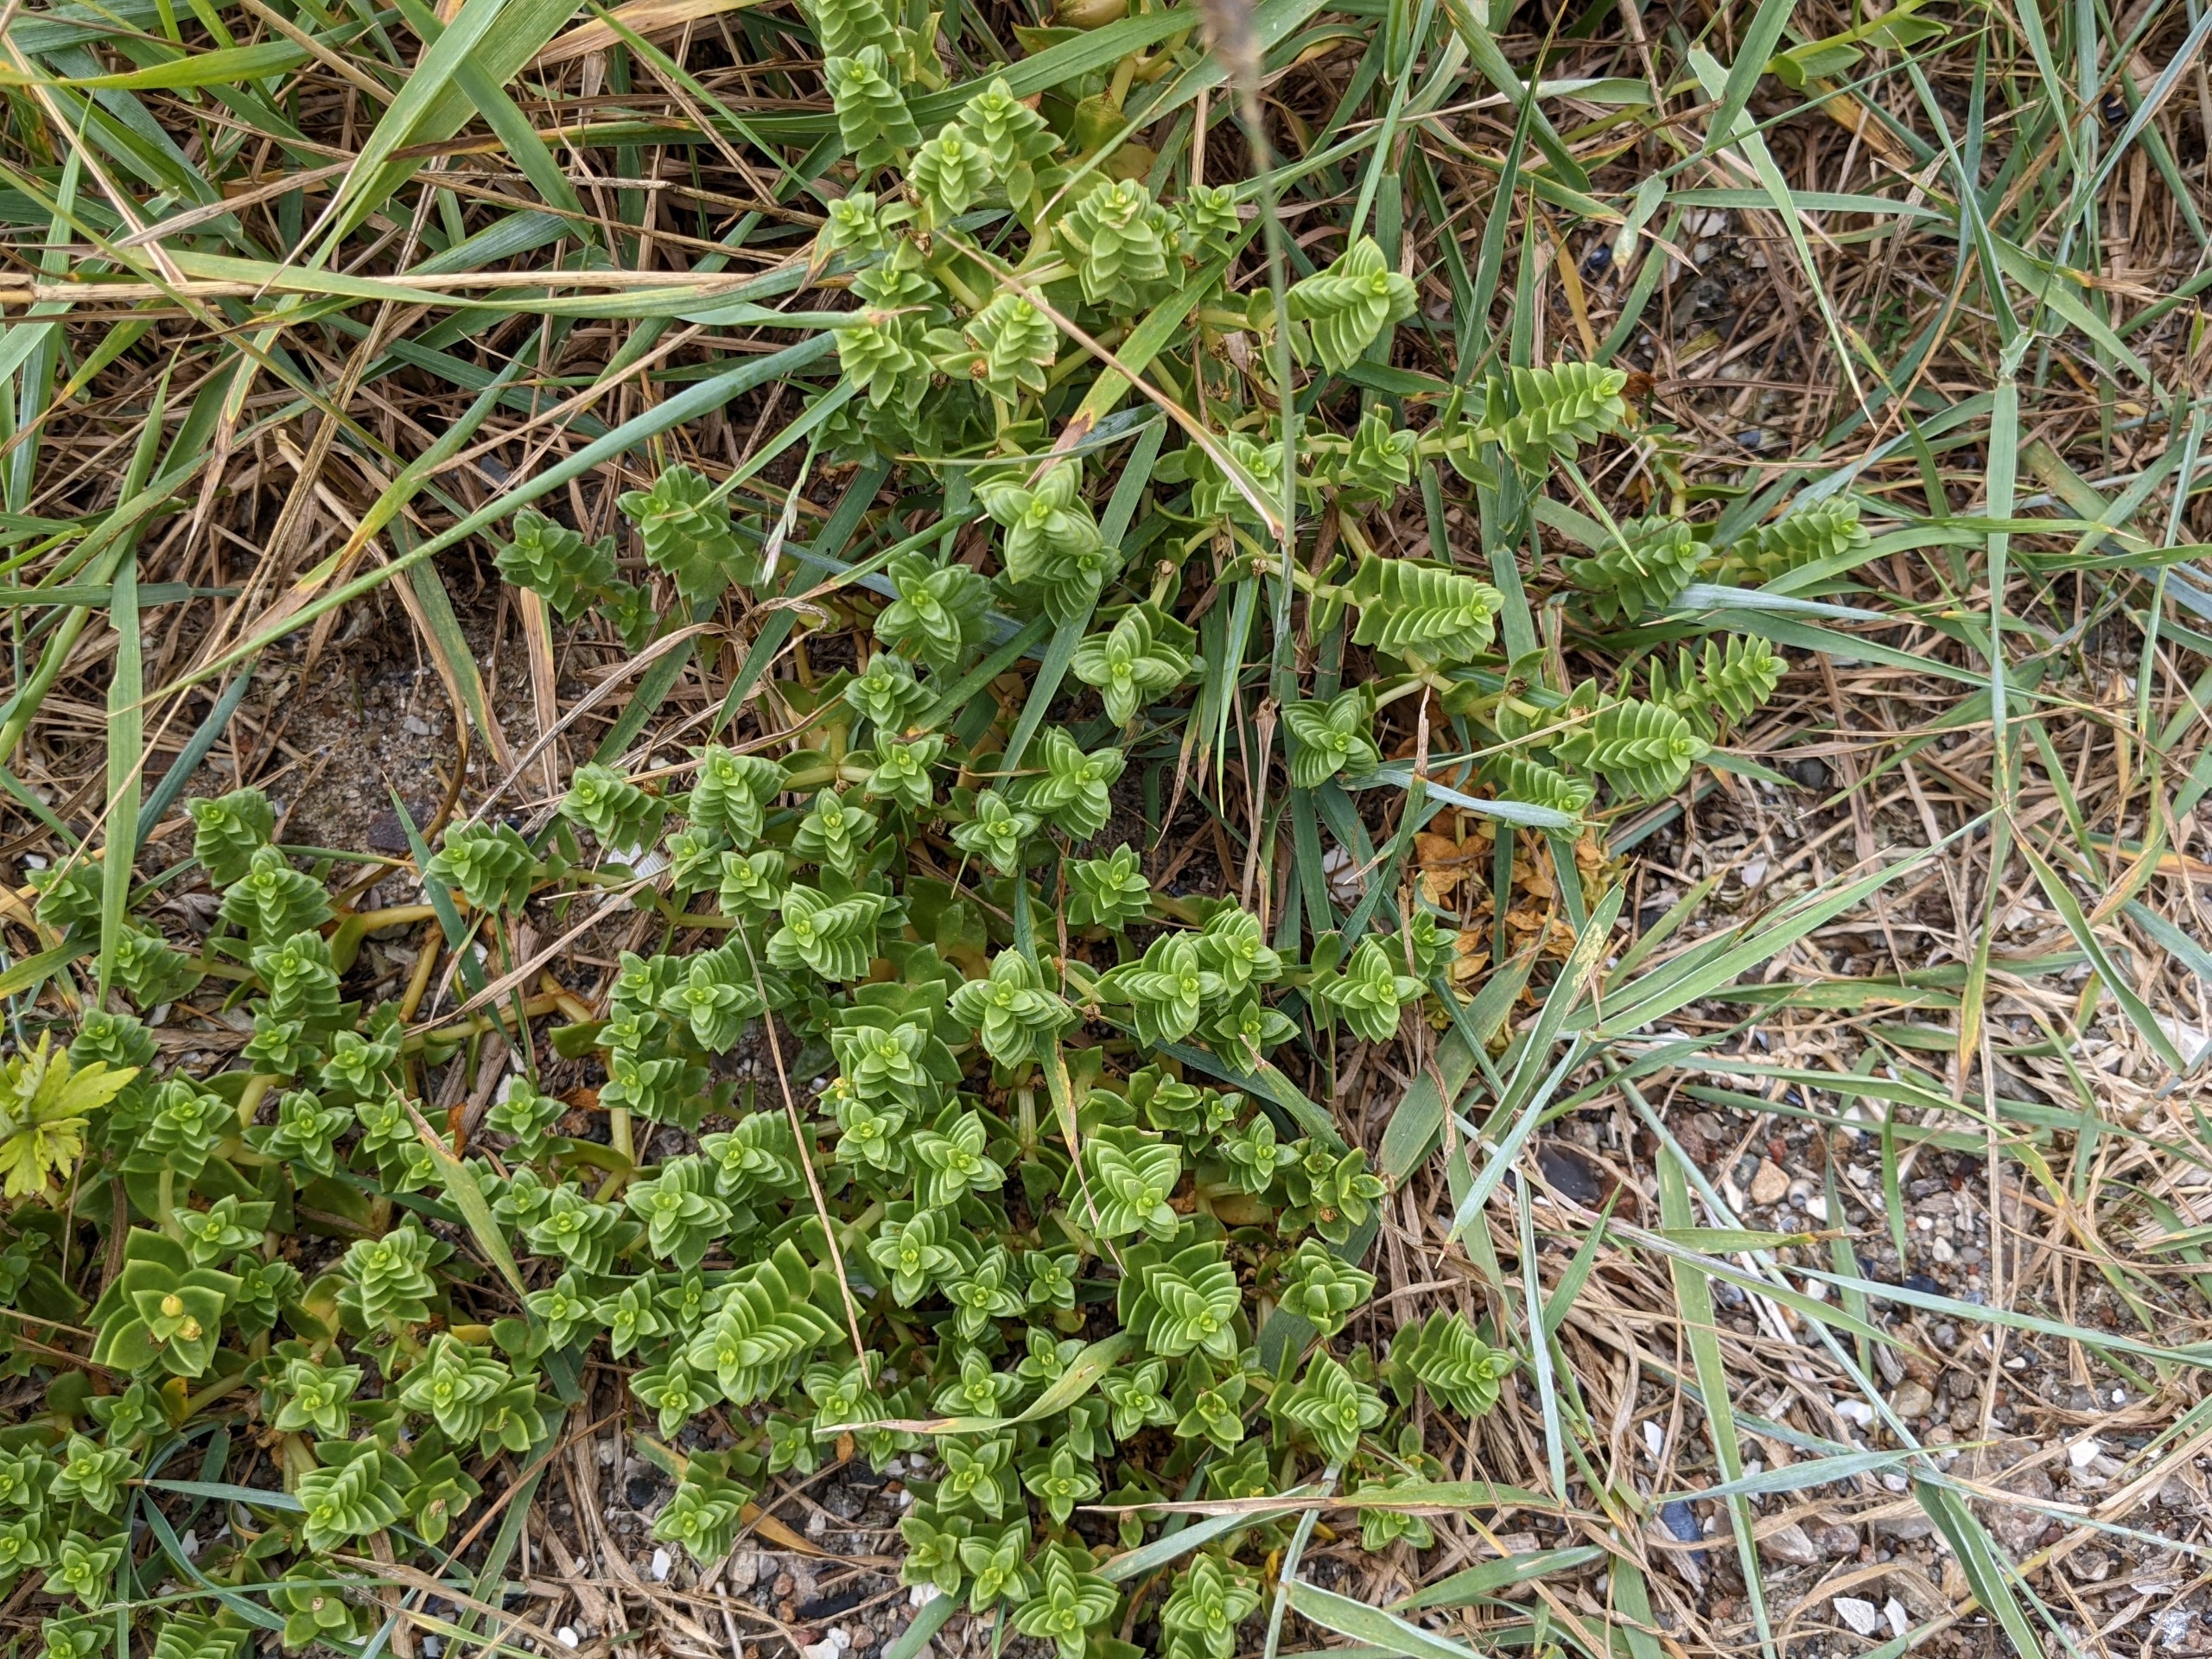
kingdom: Plantae
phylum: Tracheophyta
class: Magnoliopsida
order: Caryophyllales
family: Caryophyllaceae
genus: Honckenya
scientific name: Honckenya peploides
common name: Strandarve
